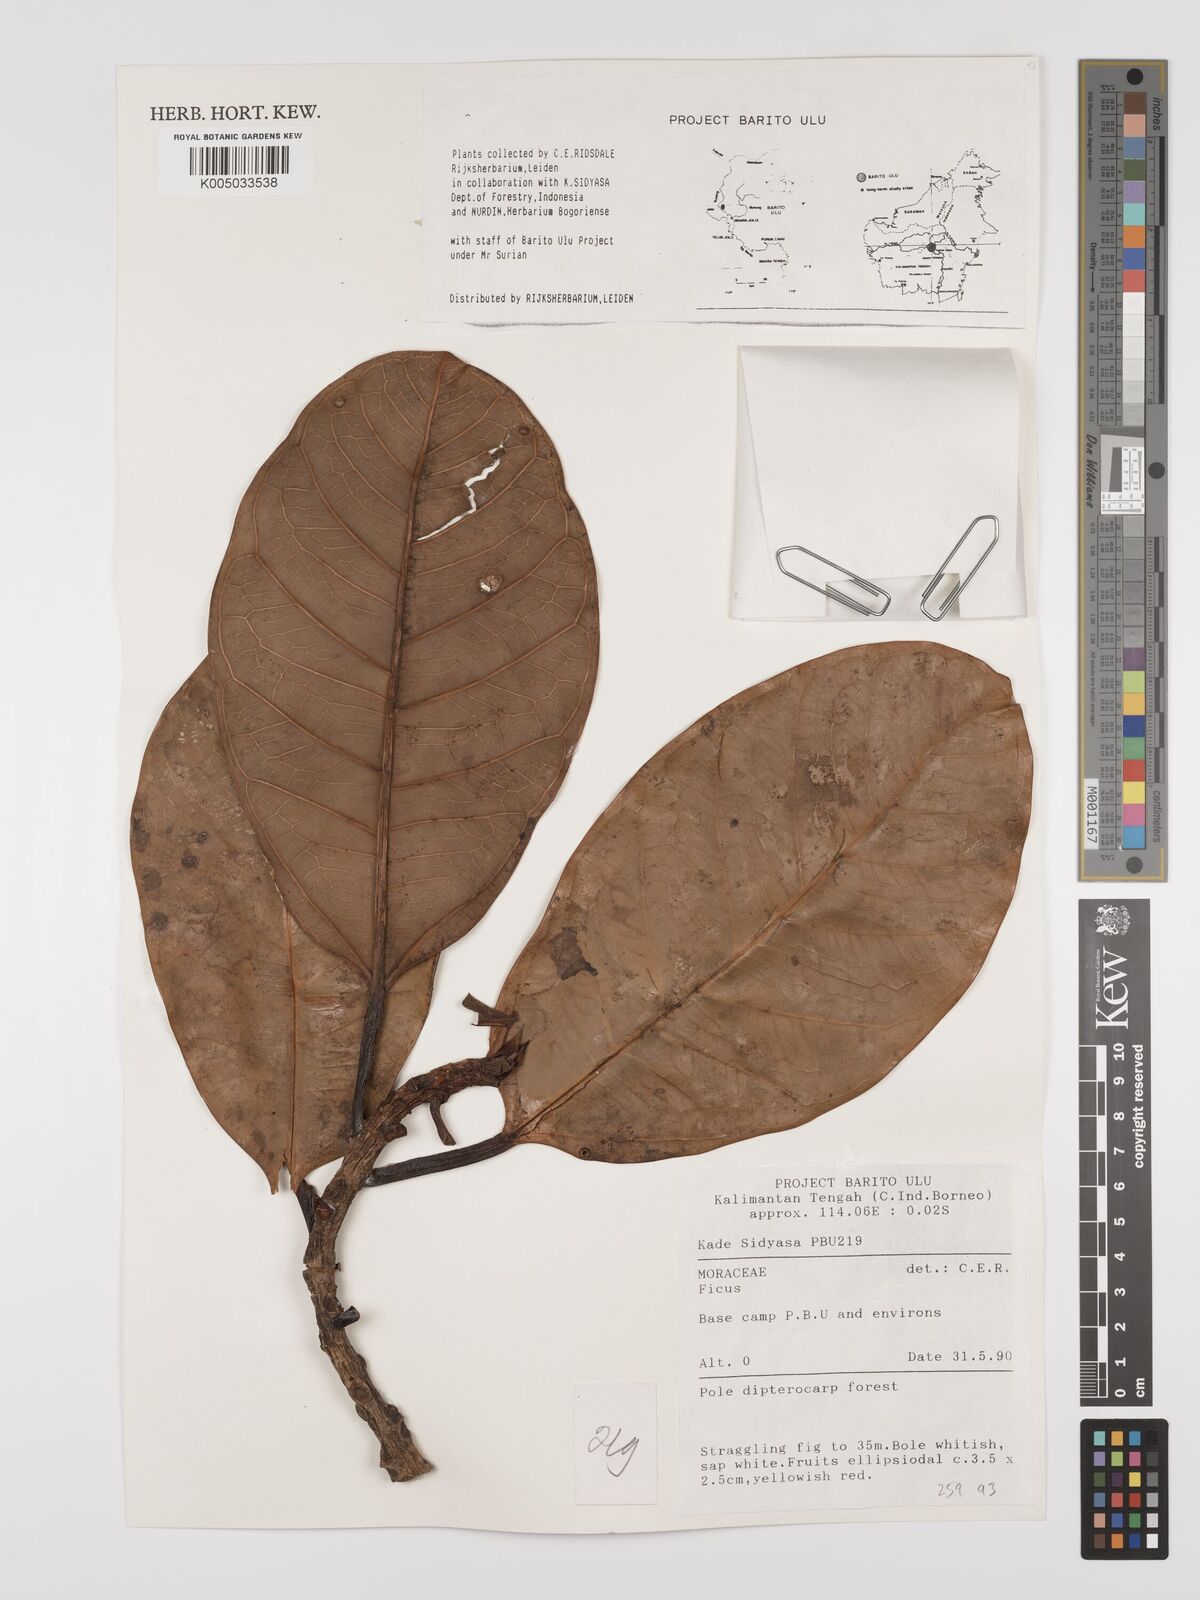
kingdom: Plantae
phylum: Tracheophyta
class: Magnoliopsida
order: Rosales
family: Moraceae
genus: Ficus
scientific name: Ficus
